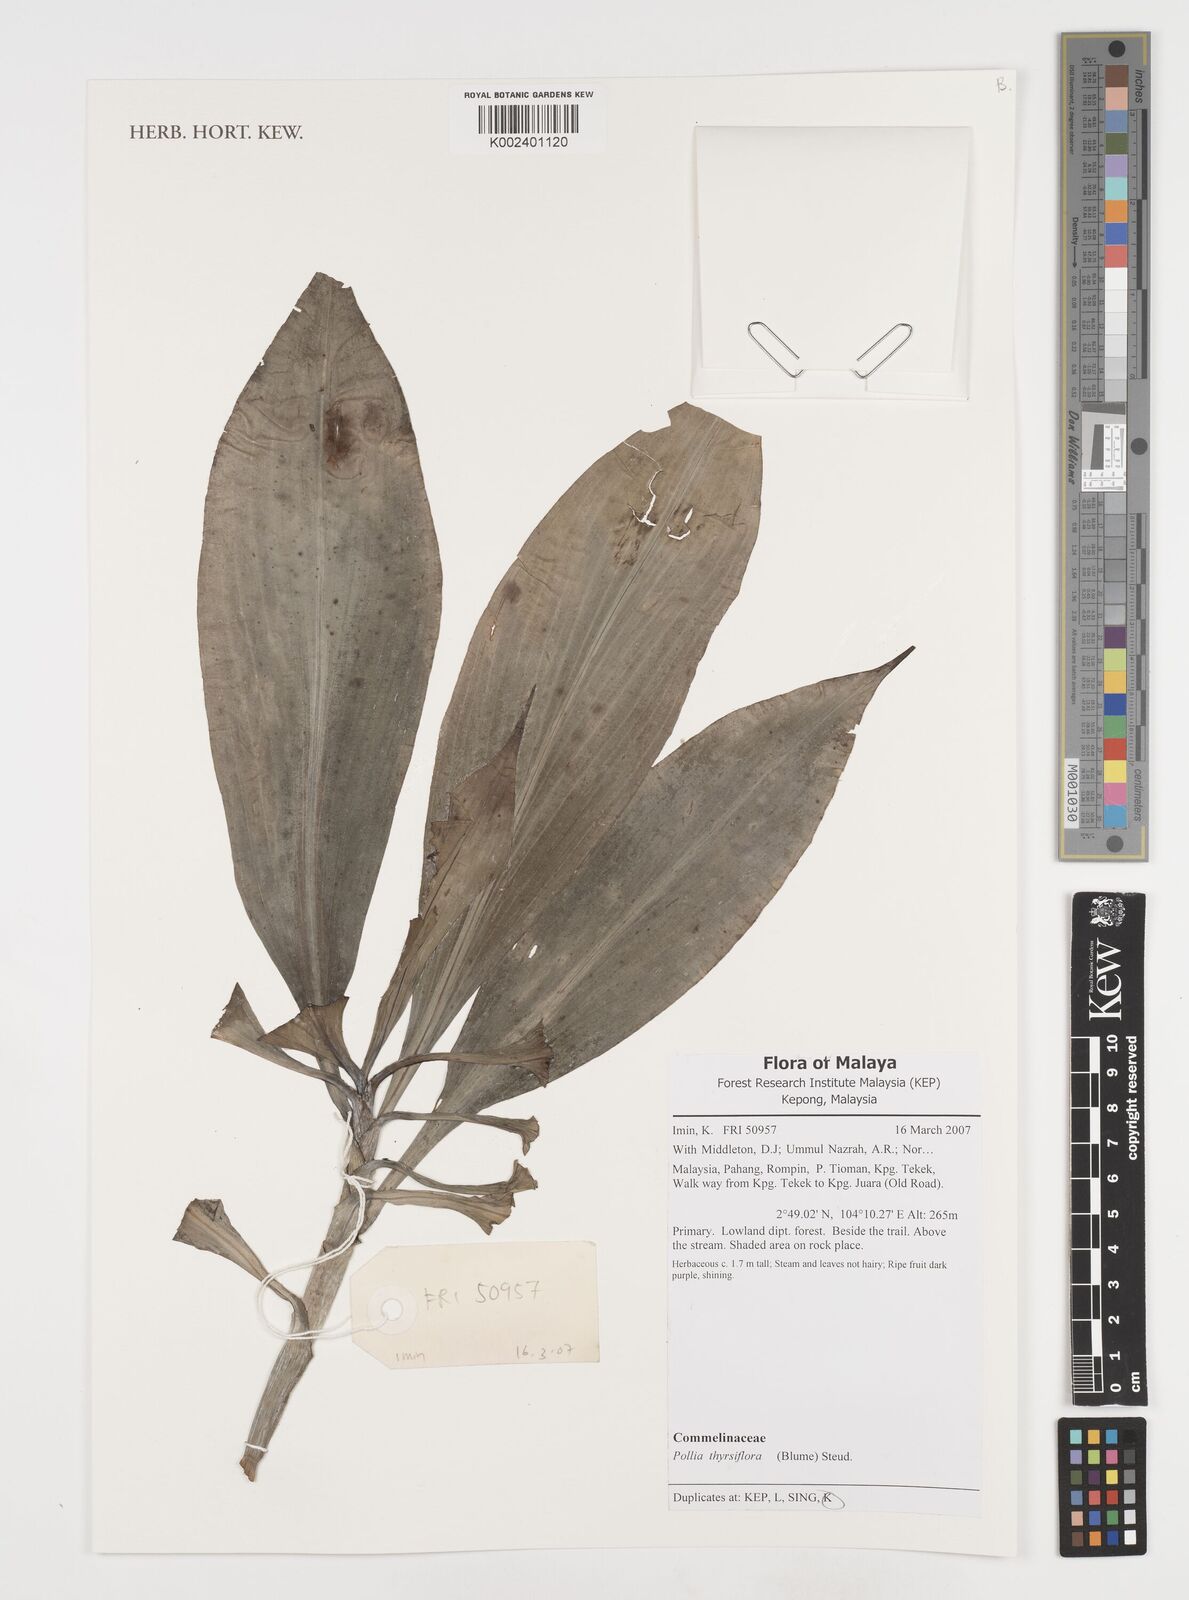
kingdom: Plantae
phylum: Tracheophyta
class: Liliopsida
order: Commelinales
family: Commelinaceae
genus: Pollia
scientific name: Pollia thyrsiflora
